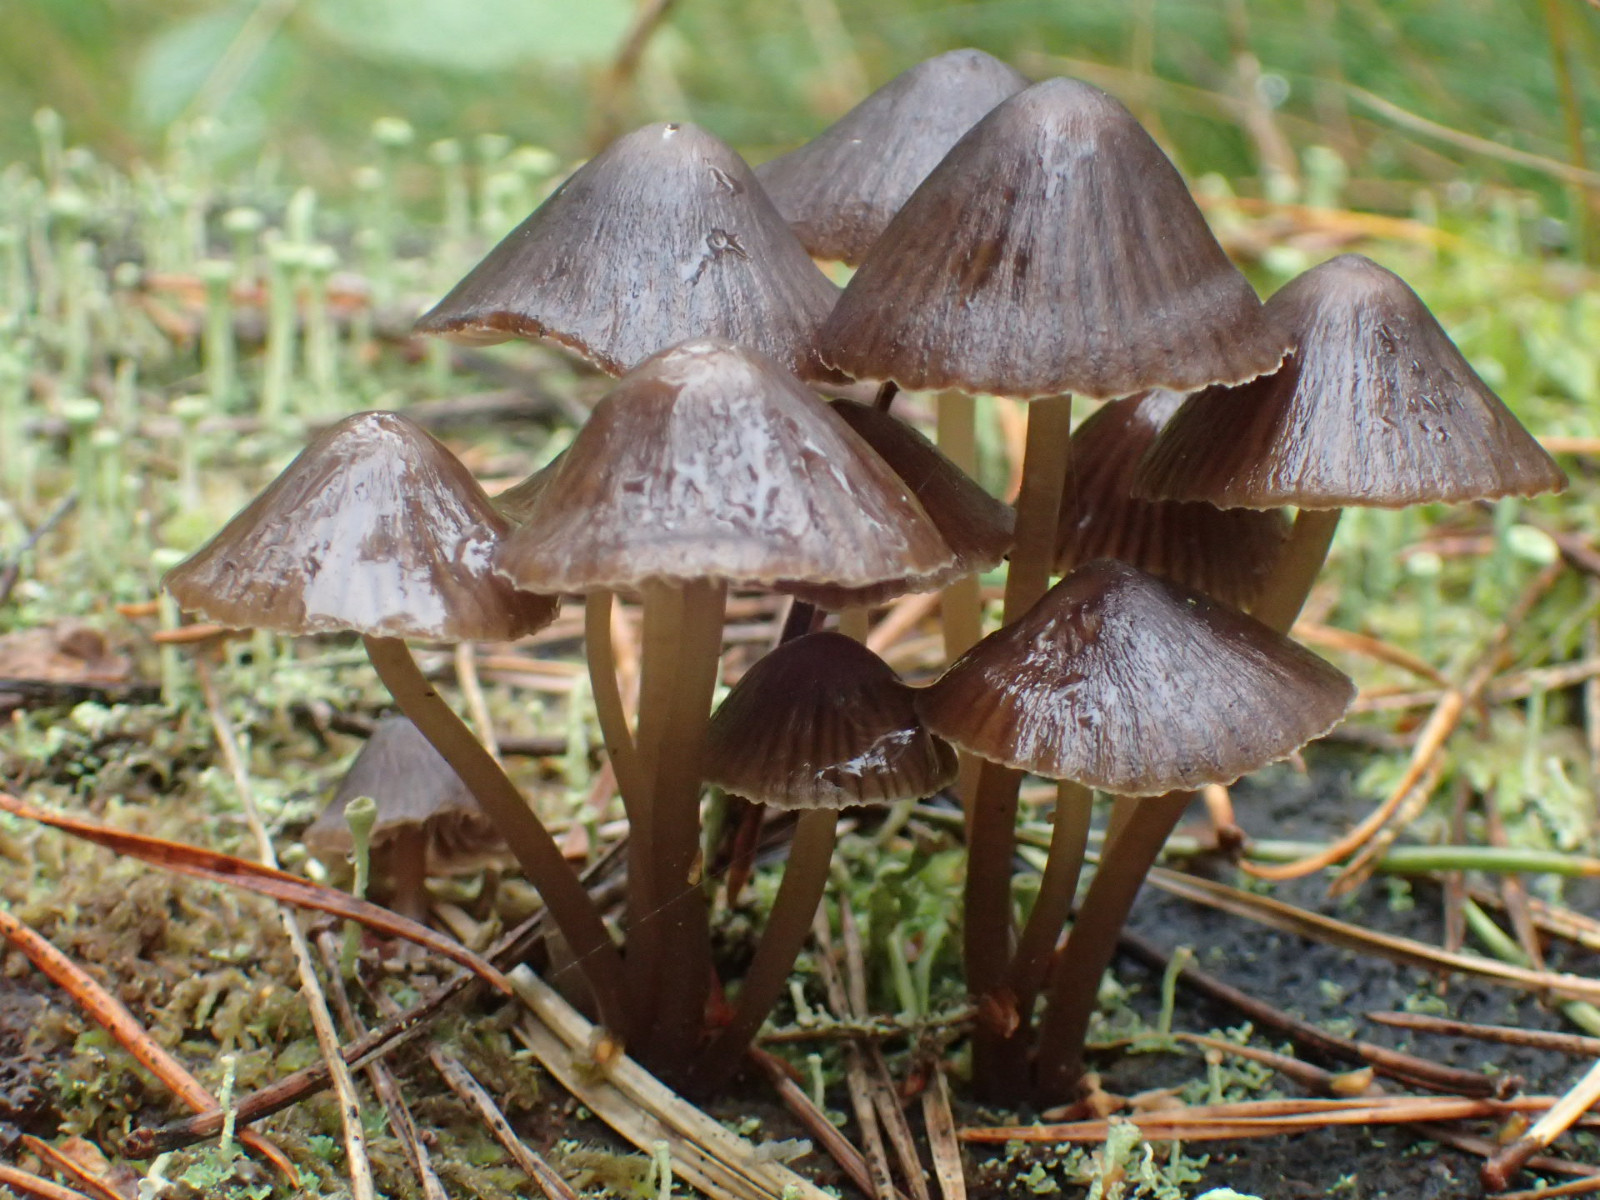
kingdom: Fungi
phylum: Basidiomycota
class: Agaricomycetes
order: Agaricales
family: Mycenaceae
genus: Mycena
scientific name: Mycena stipata
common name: stinkende huesvamp
